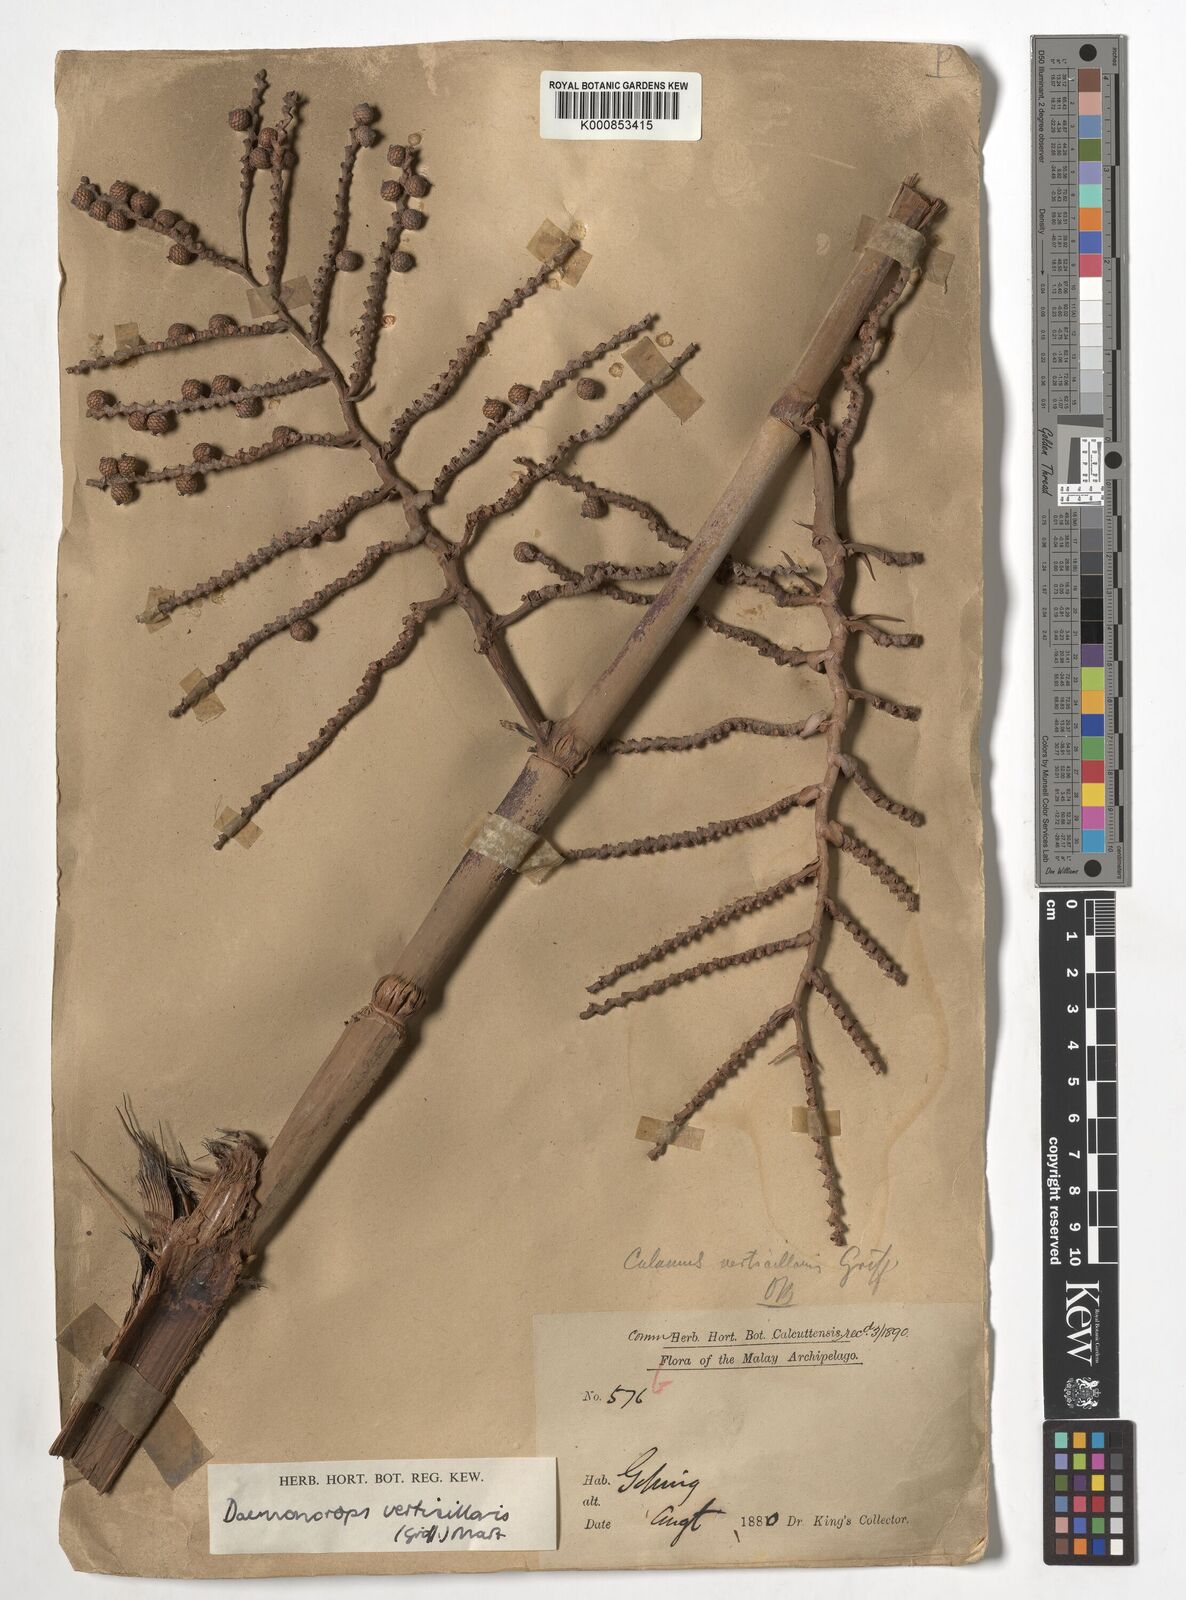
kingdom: Plantae
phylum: Tracheophyta
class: Liliopsida
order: Arecales
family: Arecaceae
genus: Calamus
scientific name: Calamus verticillaris
